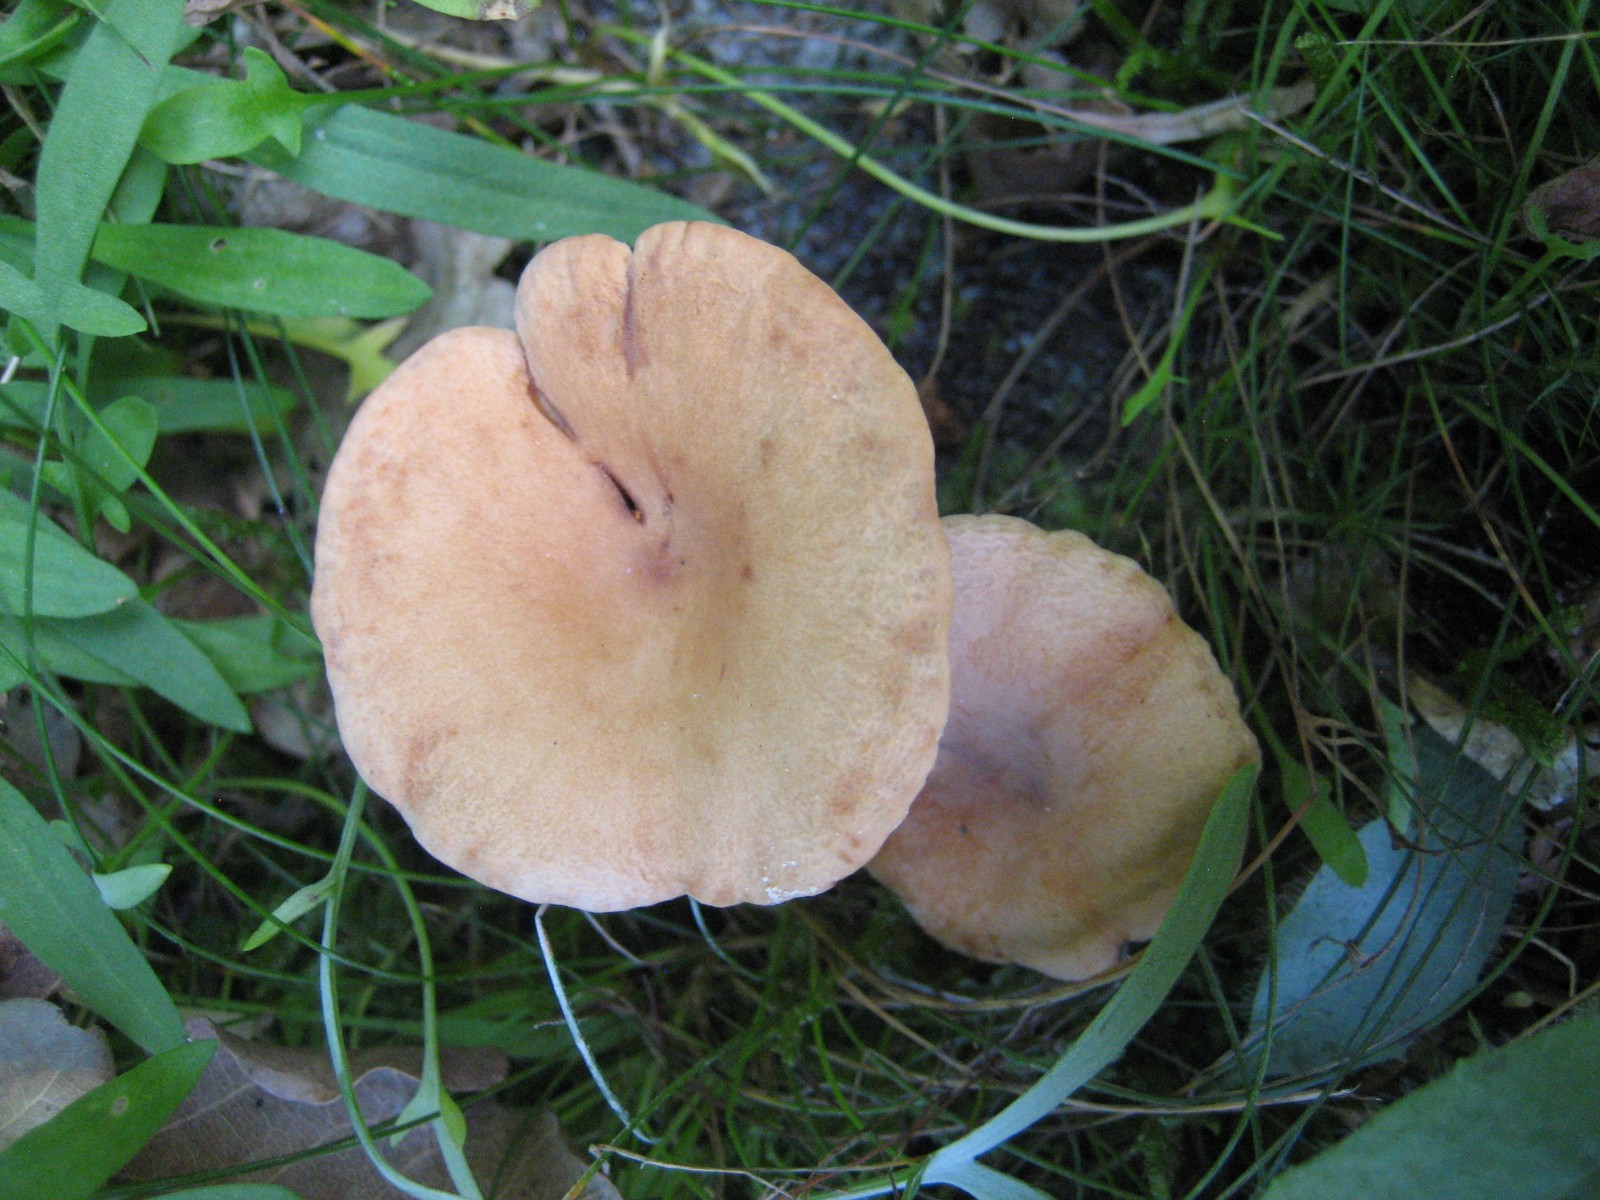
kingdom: Fungi
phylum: Basidiomycota
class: Agaricomycetes
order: Russulales
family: Russulaceae
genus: Lactarius
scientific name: Lactarius tabidus
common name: rynket mælkehat
